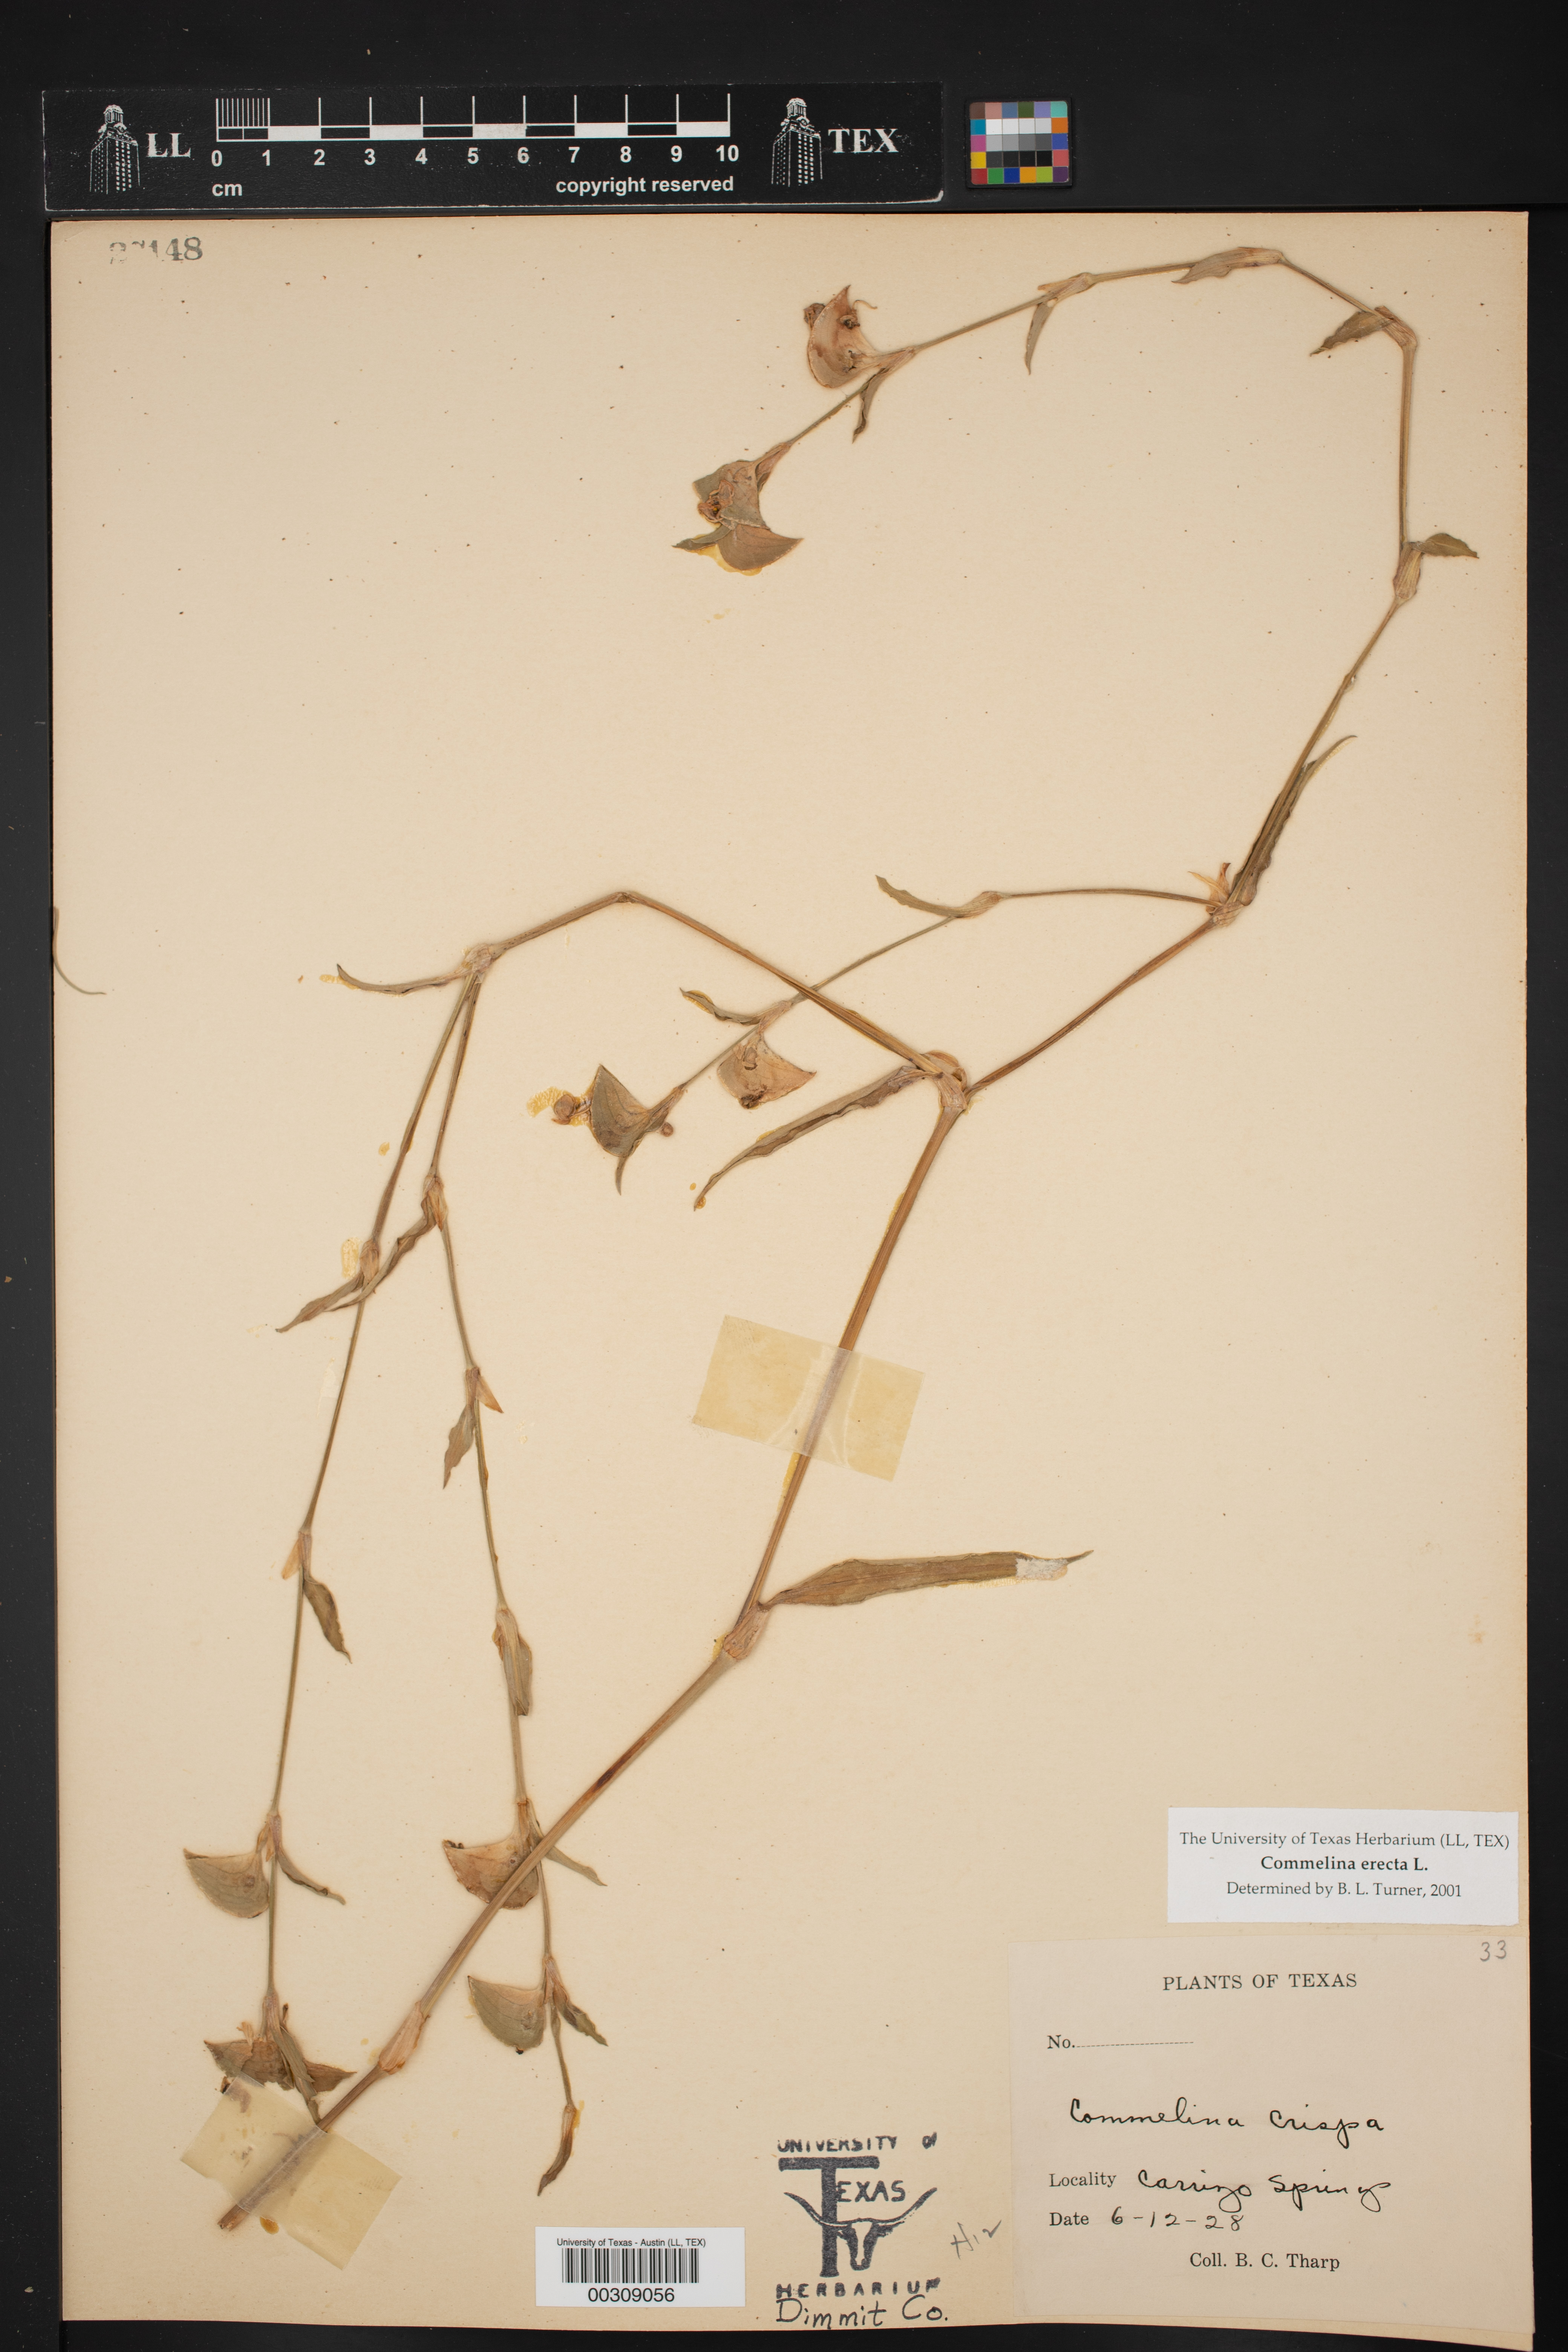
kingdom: Plantae
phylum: Tracheophyta
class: Liliopsida
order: Commelinales
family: Commelinaceae
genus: Commelina
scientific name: Commelina erecta
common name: Blousel blommetjie
